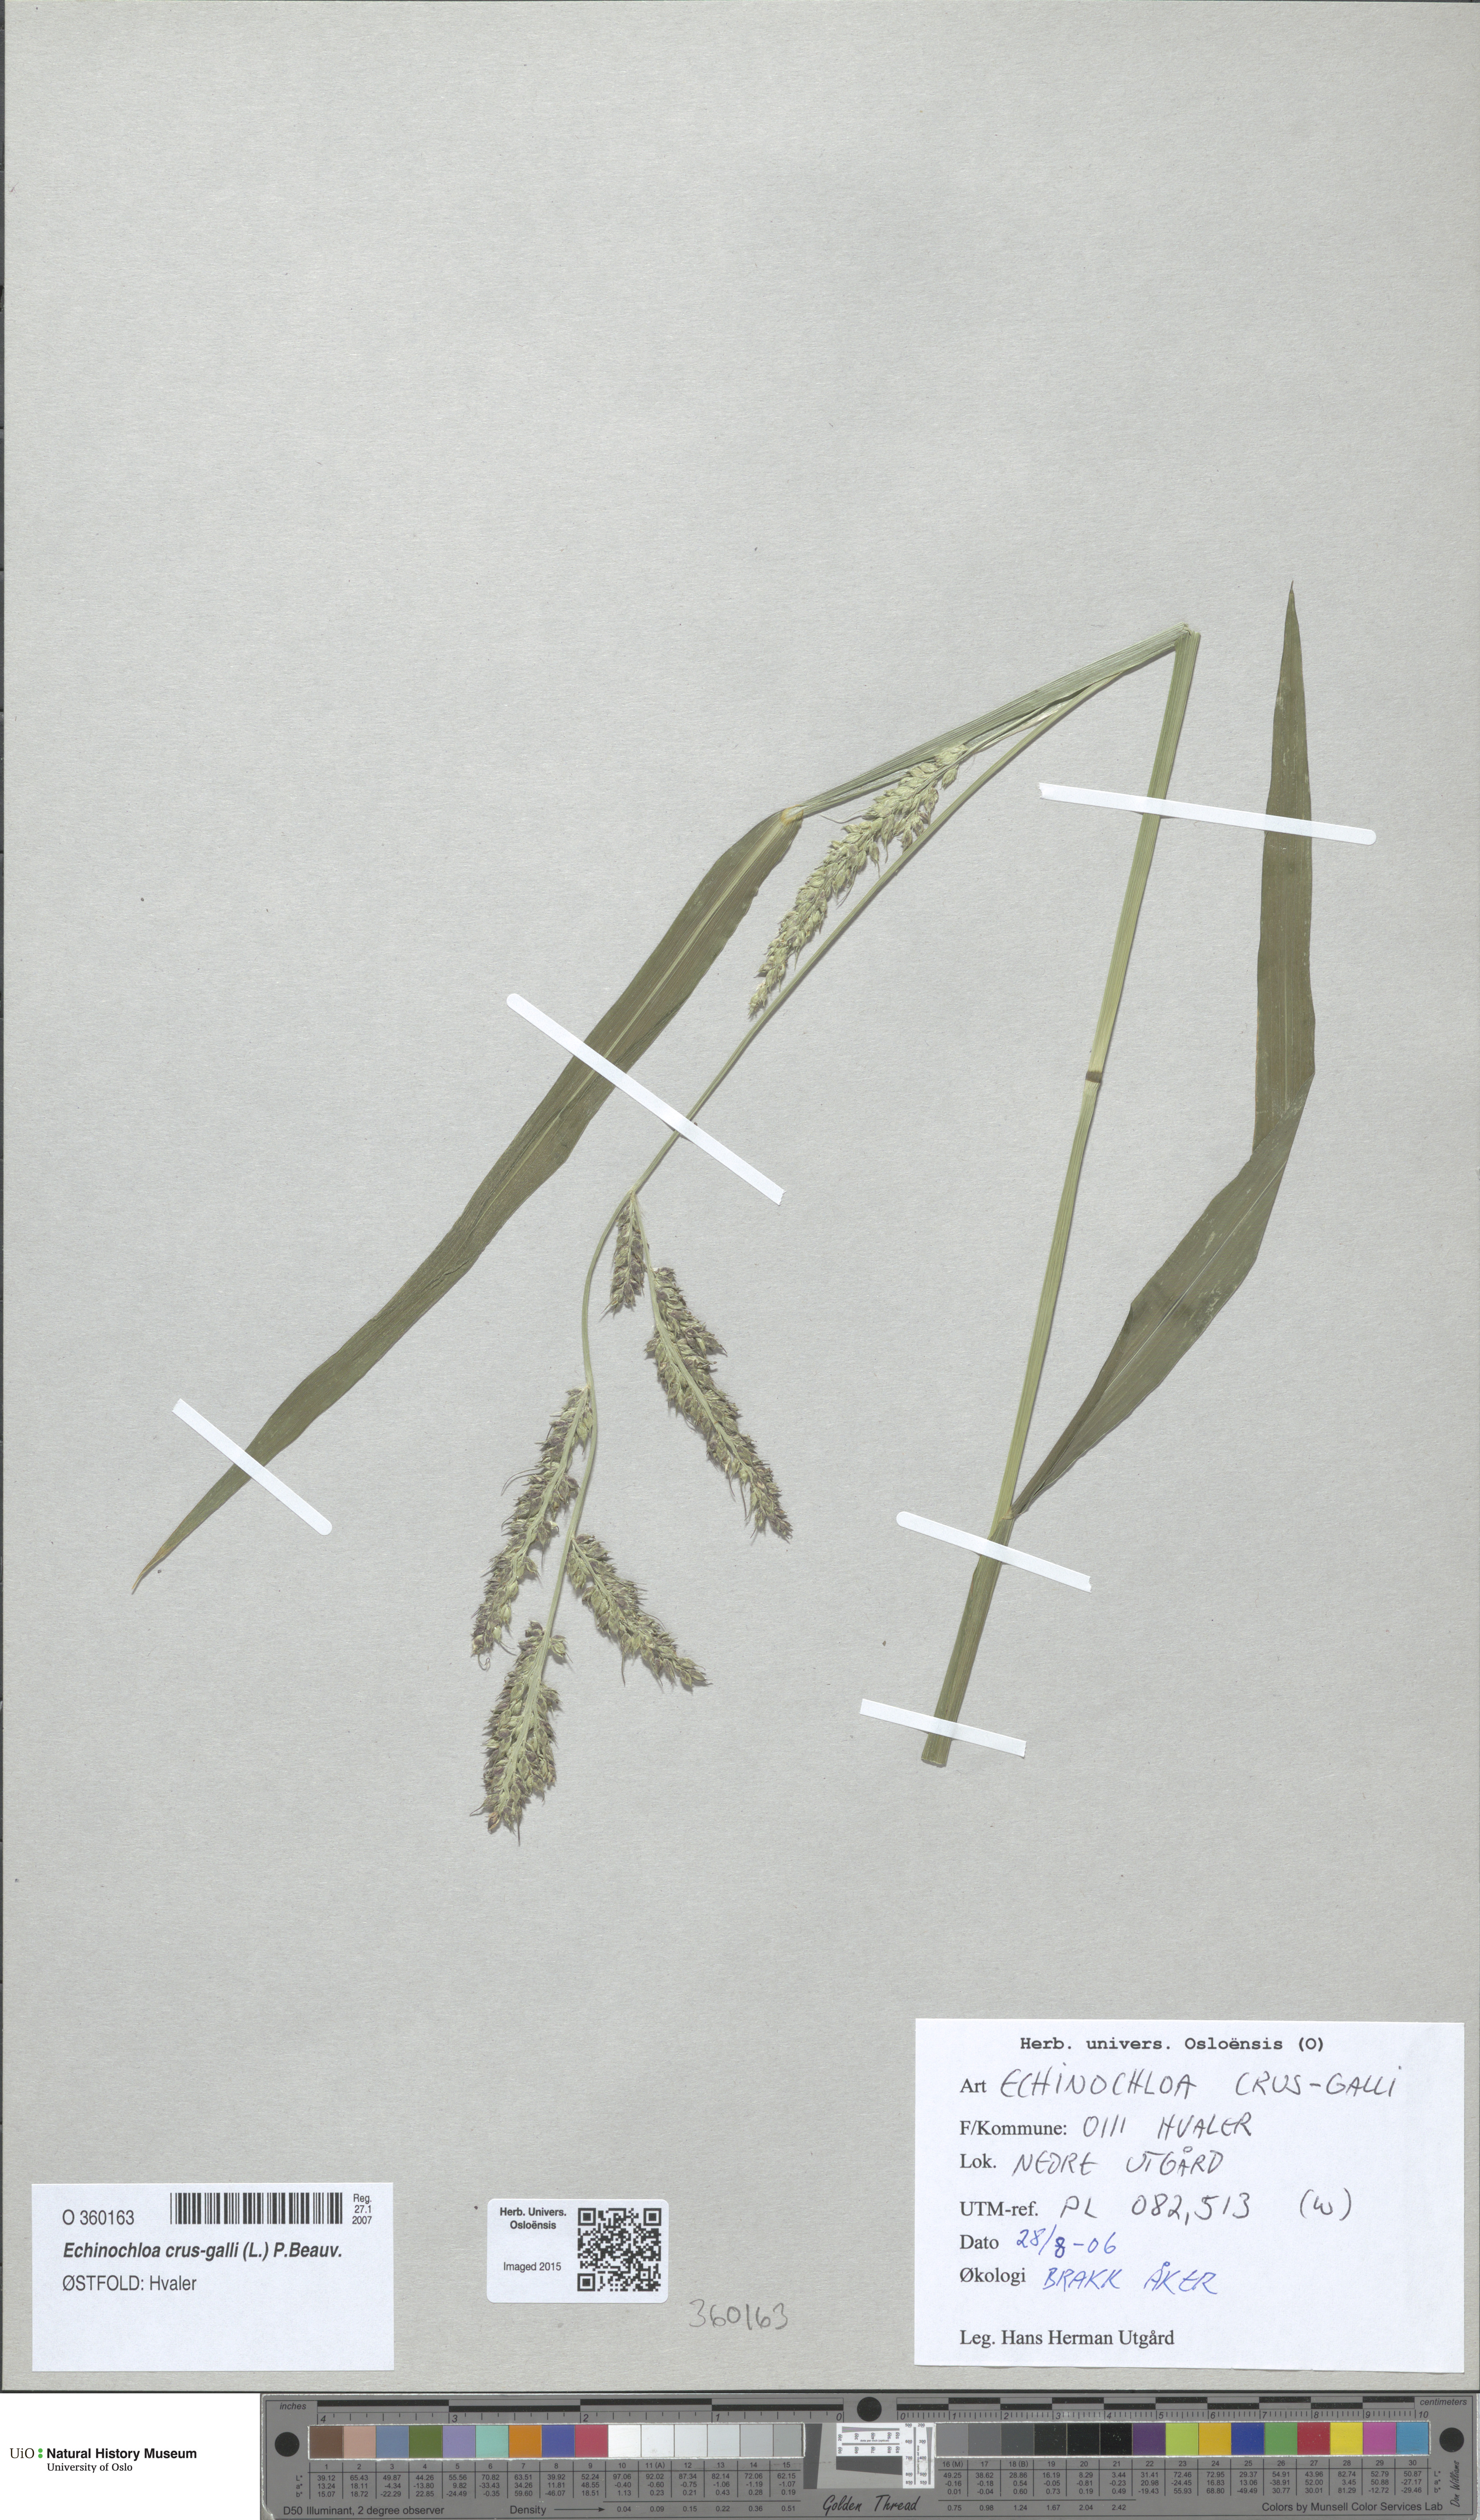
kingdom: Plantae
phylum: Tracheophyta
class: Liliopsida
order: Poales
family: Poaceae
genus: Echinochloa
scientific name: Echinochloa crus-galli
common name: Cockspur
